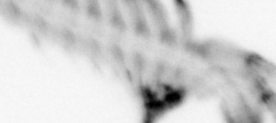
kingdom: Animalia
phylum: Annelida
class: Polychaeta
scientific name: Polychaeta
